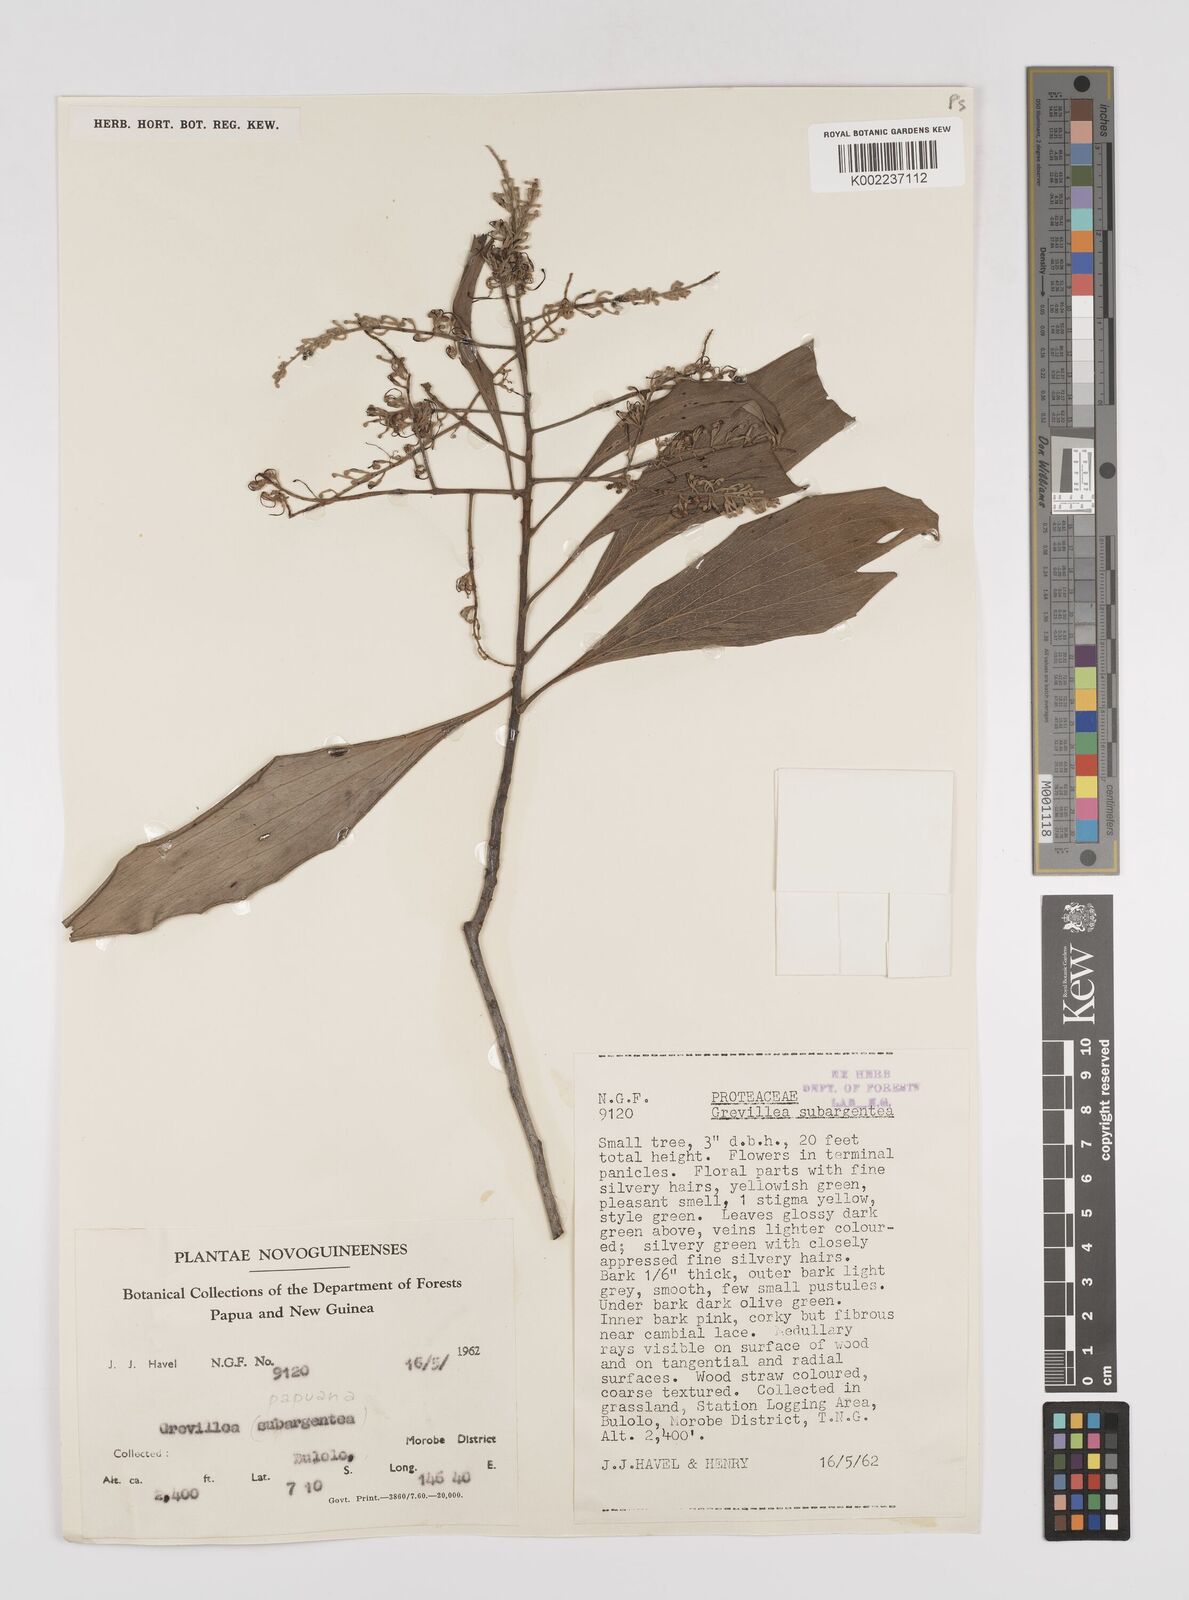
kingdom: Plantae
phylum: Tracheophyta
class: Magnoliopsida
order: Proteales
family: Proteaceae
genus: Grevillea
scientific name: Grevillea papuana
